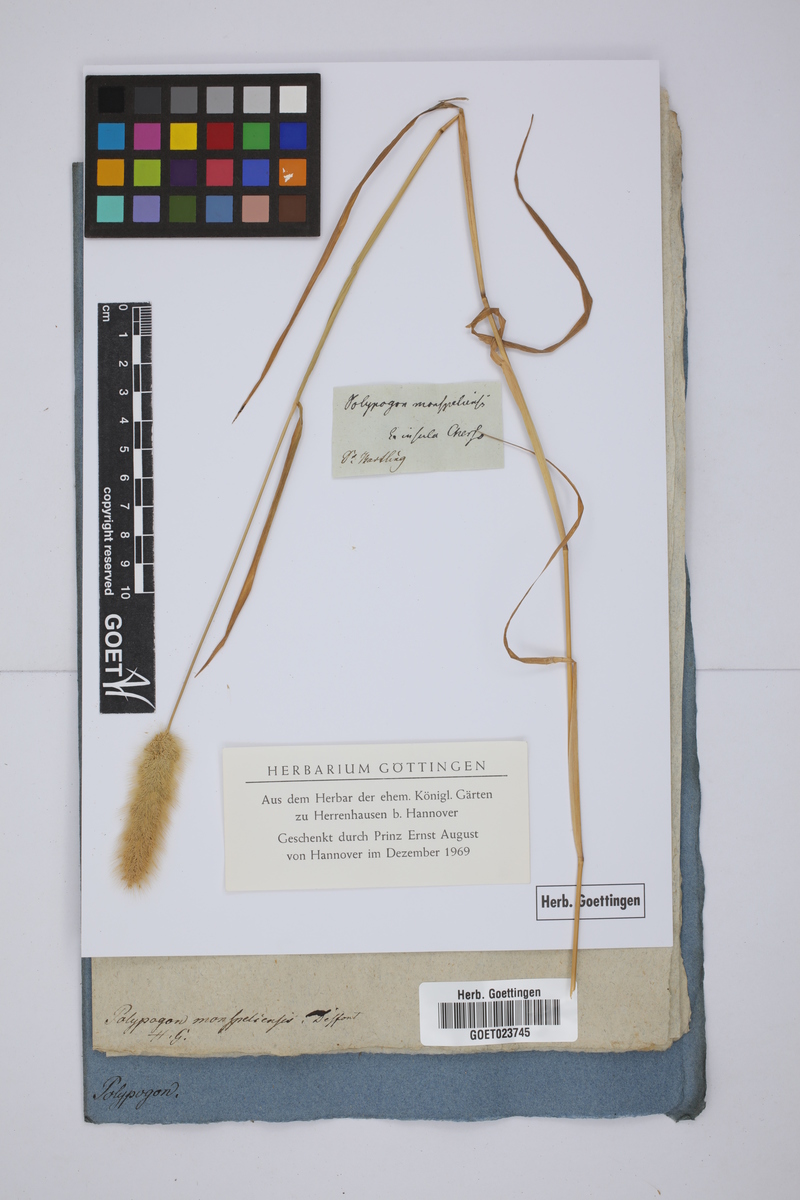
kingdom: Plantae
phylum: Tracheophyta
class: Liliopsida
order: Poales
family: Poaceae
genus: Polypogon
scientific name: Polypogon monspeliensis
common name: Annual rabbitsfoot grass
